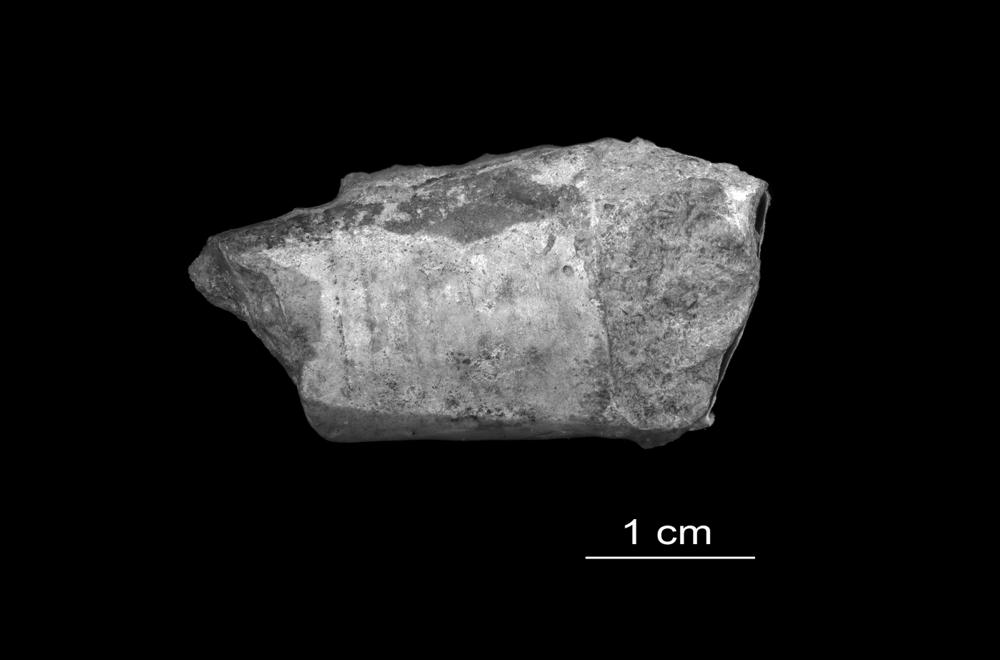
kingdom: Animalia
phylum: Annelida
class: Polychaeta
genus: Hyolithes
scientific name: Hyolithes
